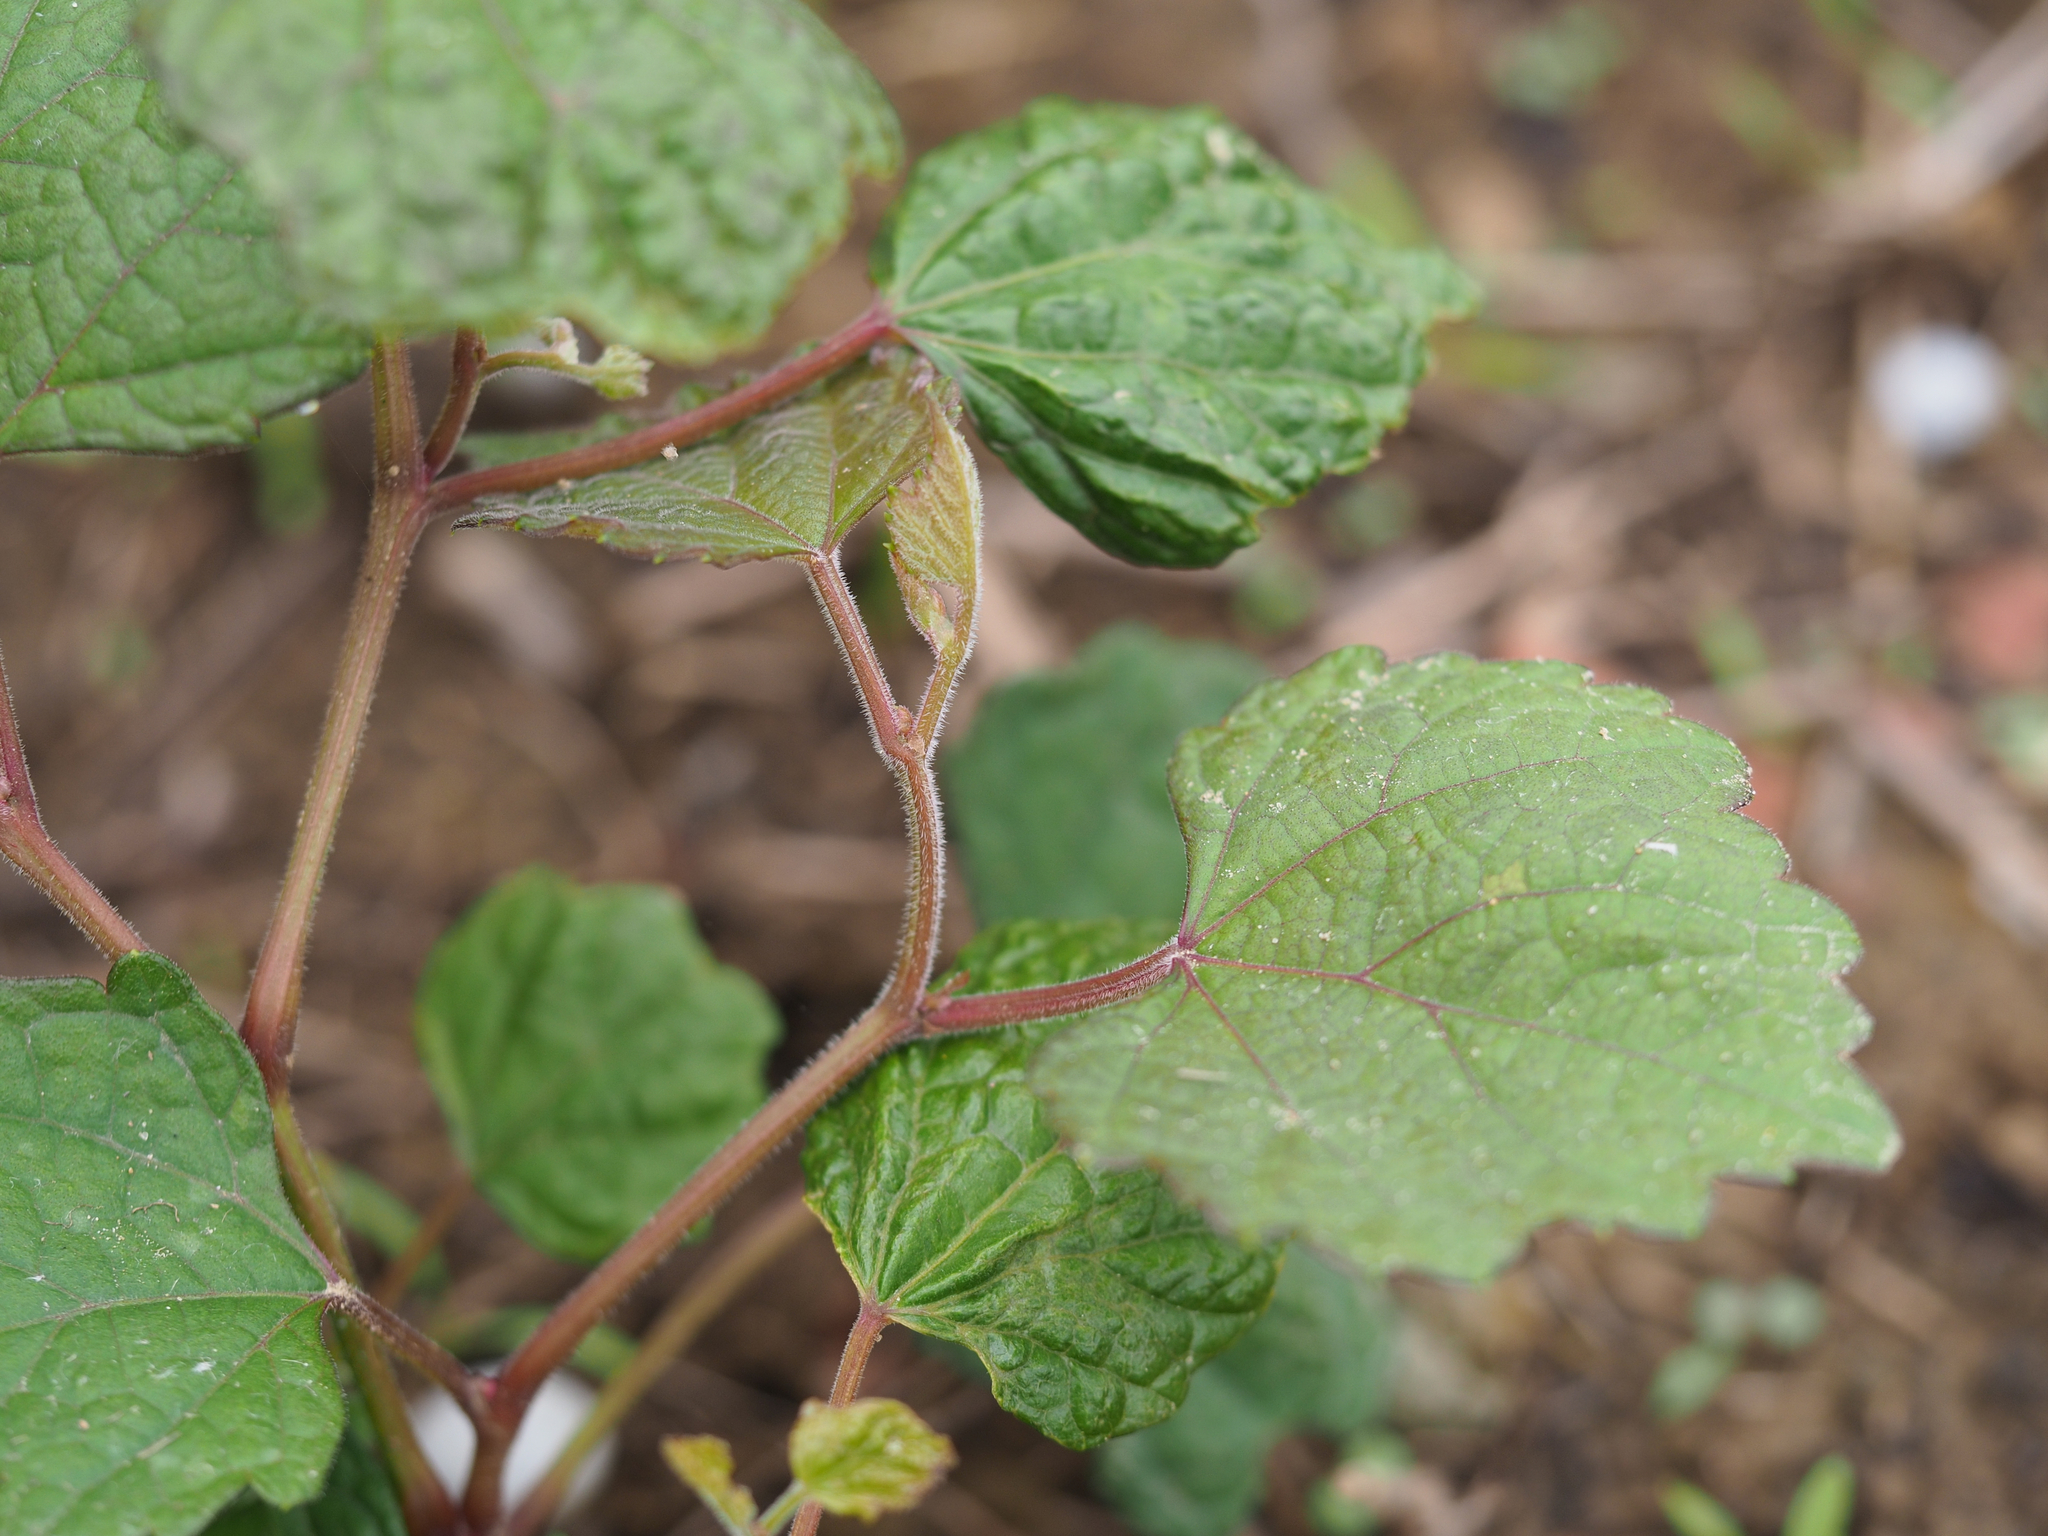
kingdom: Plantae
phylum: Tracheophyta
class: Magnoliopsida
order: Vitales
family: Vitaceae
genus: Ampelopsis
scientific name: Ampelopsis glandulosa
